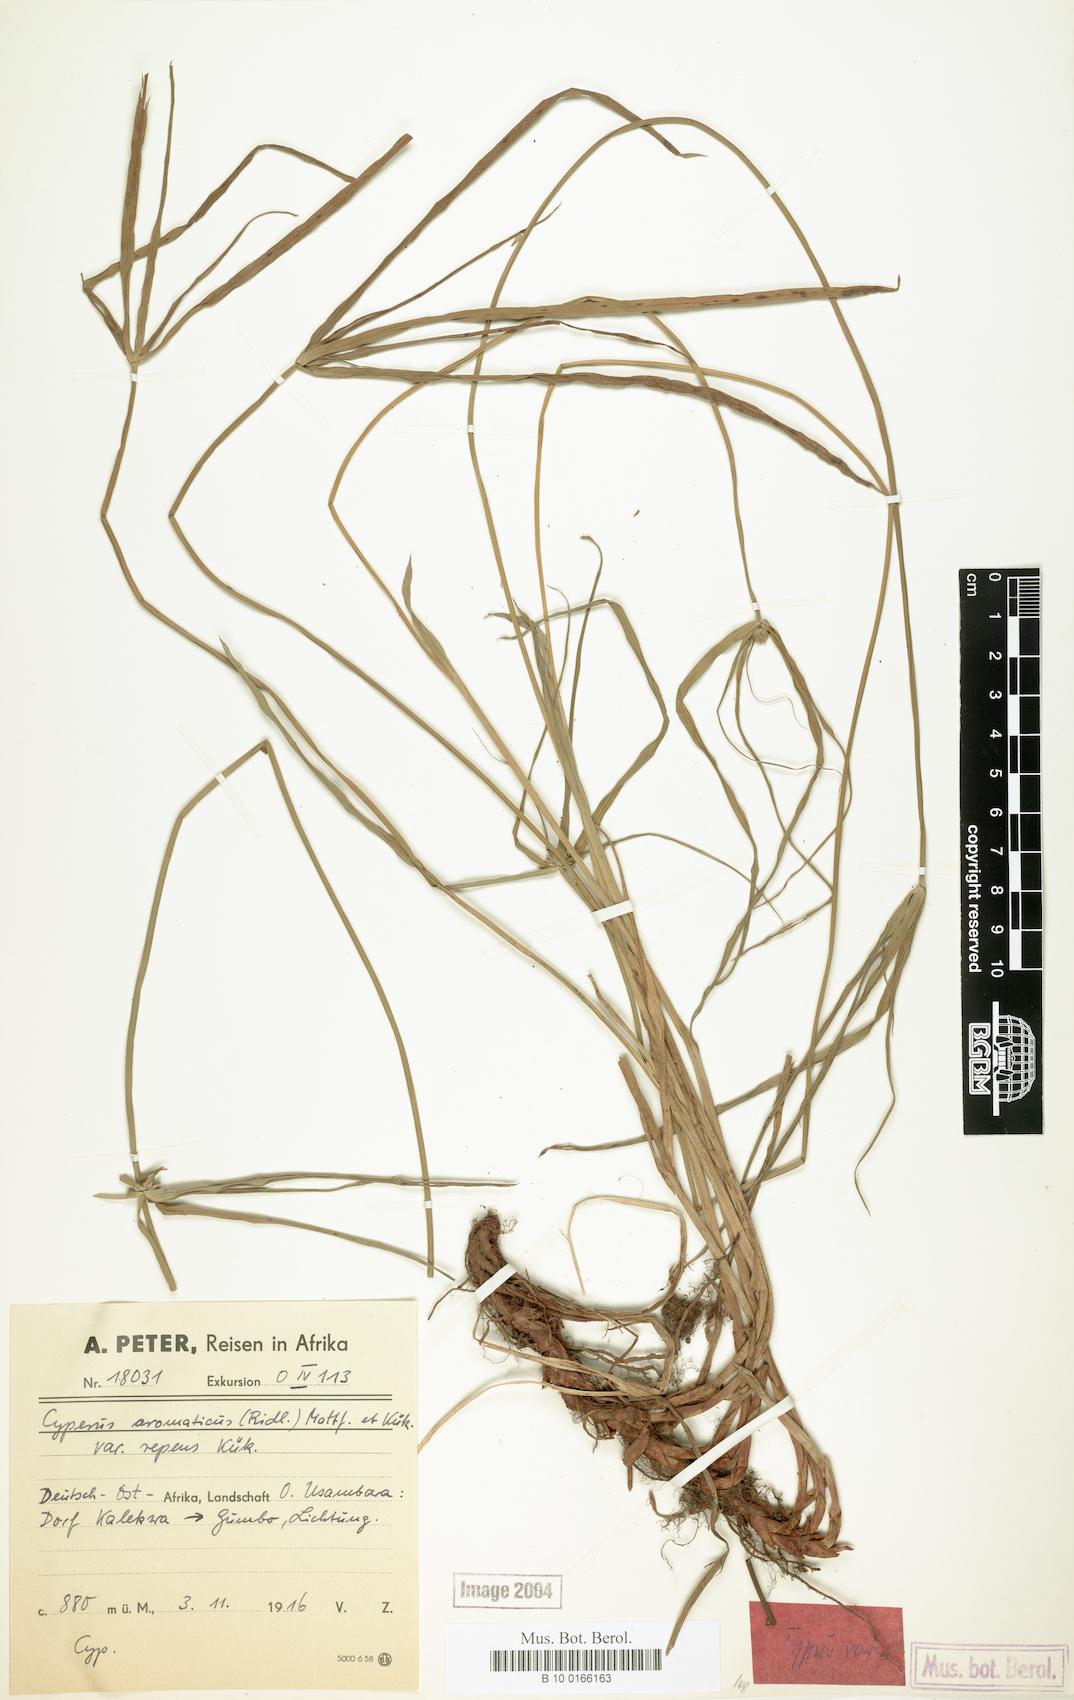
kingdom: Plantae
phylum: Tracheophyta
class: Liliopsida
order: Poales
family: Cyperaceae
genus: Cyperus
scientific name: Cyperus aromaticus
